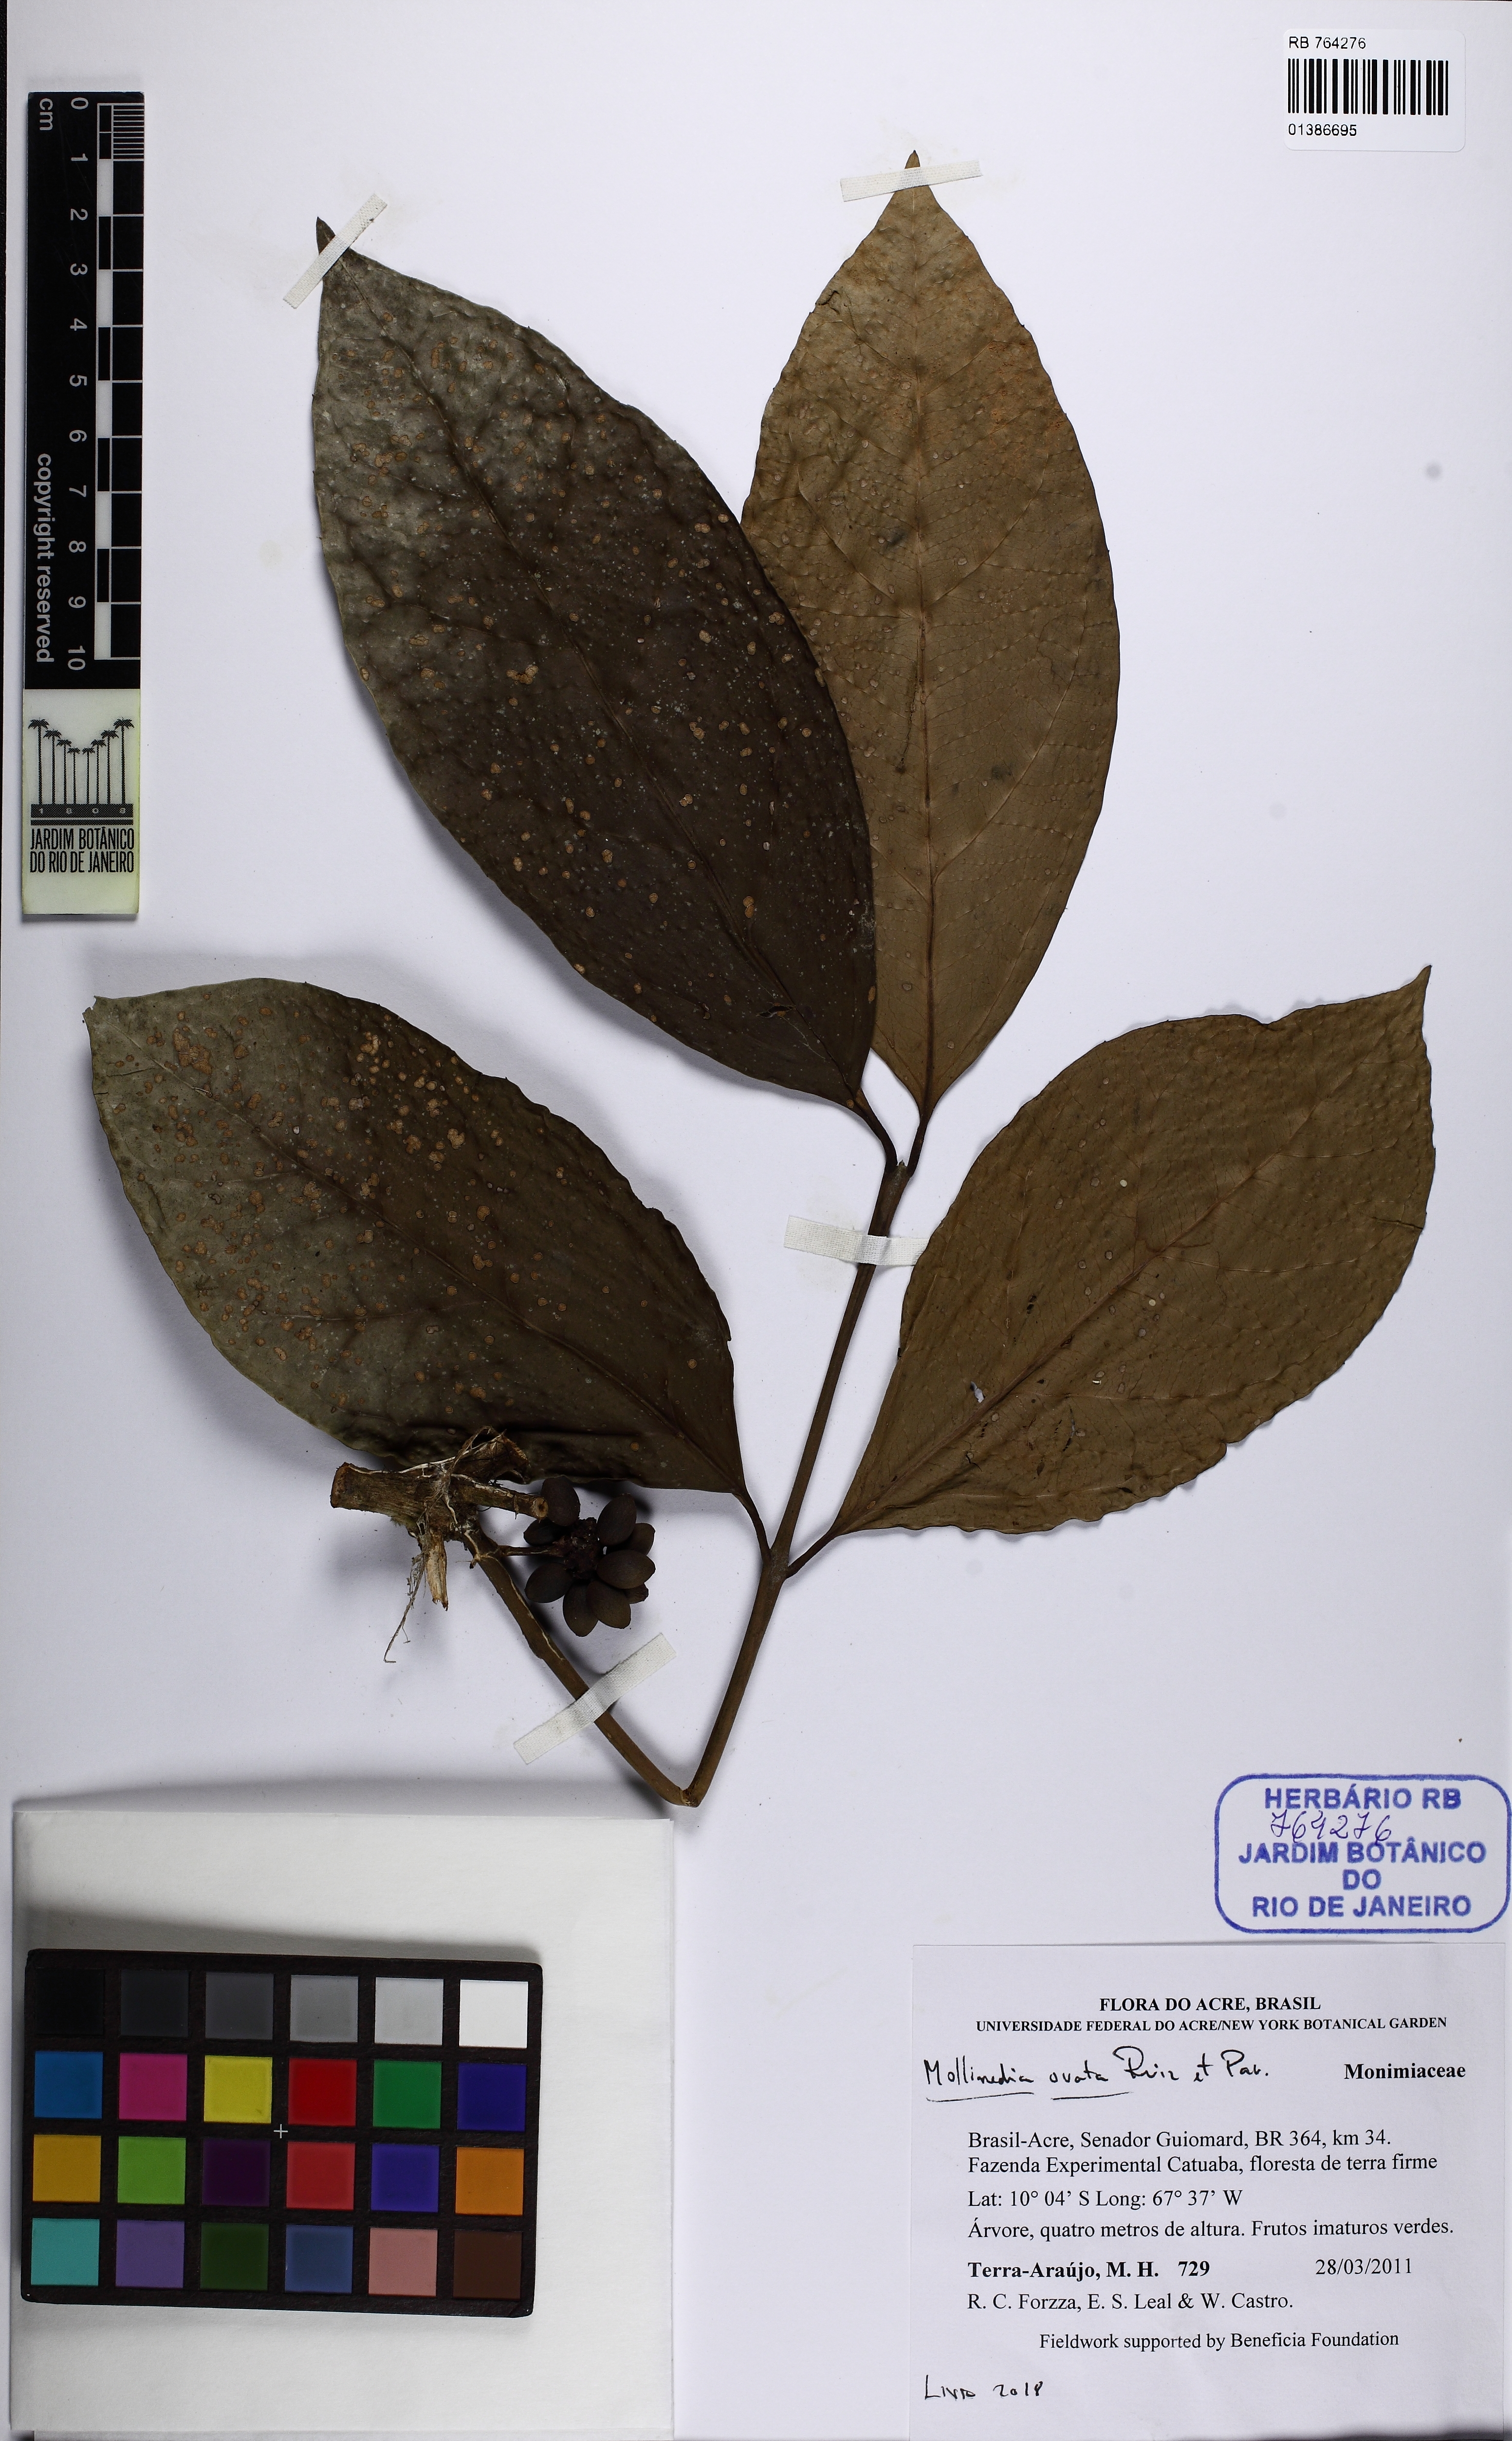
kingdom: Plantae
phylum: Tracheophyta
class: Magnoliopsida
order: Laurales
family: Monimiaceae
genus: Mollinedia
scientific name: Mollinedia ovata
